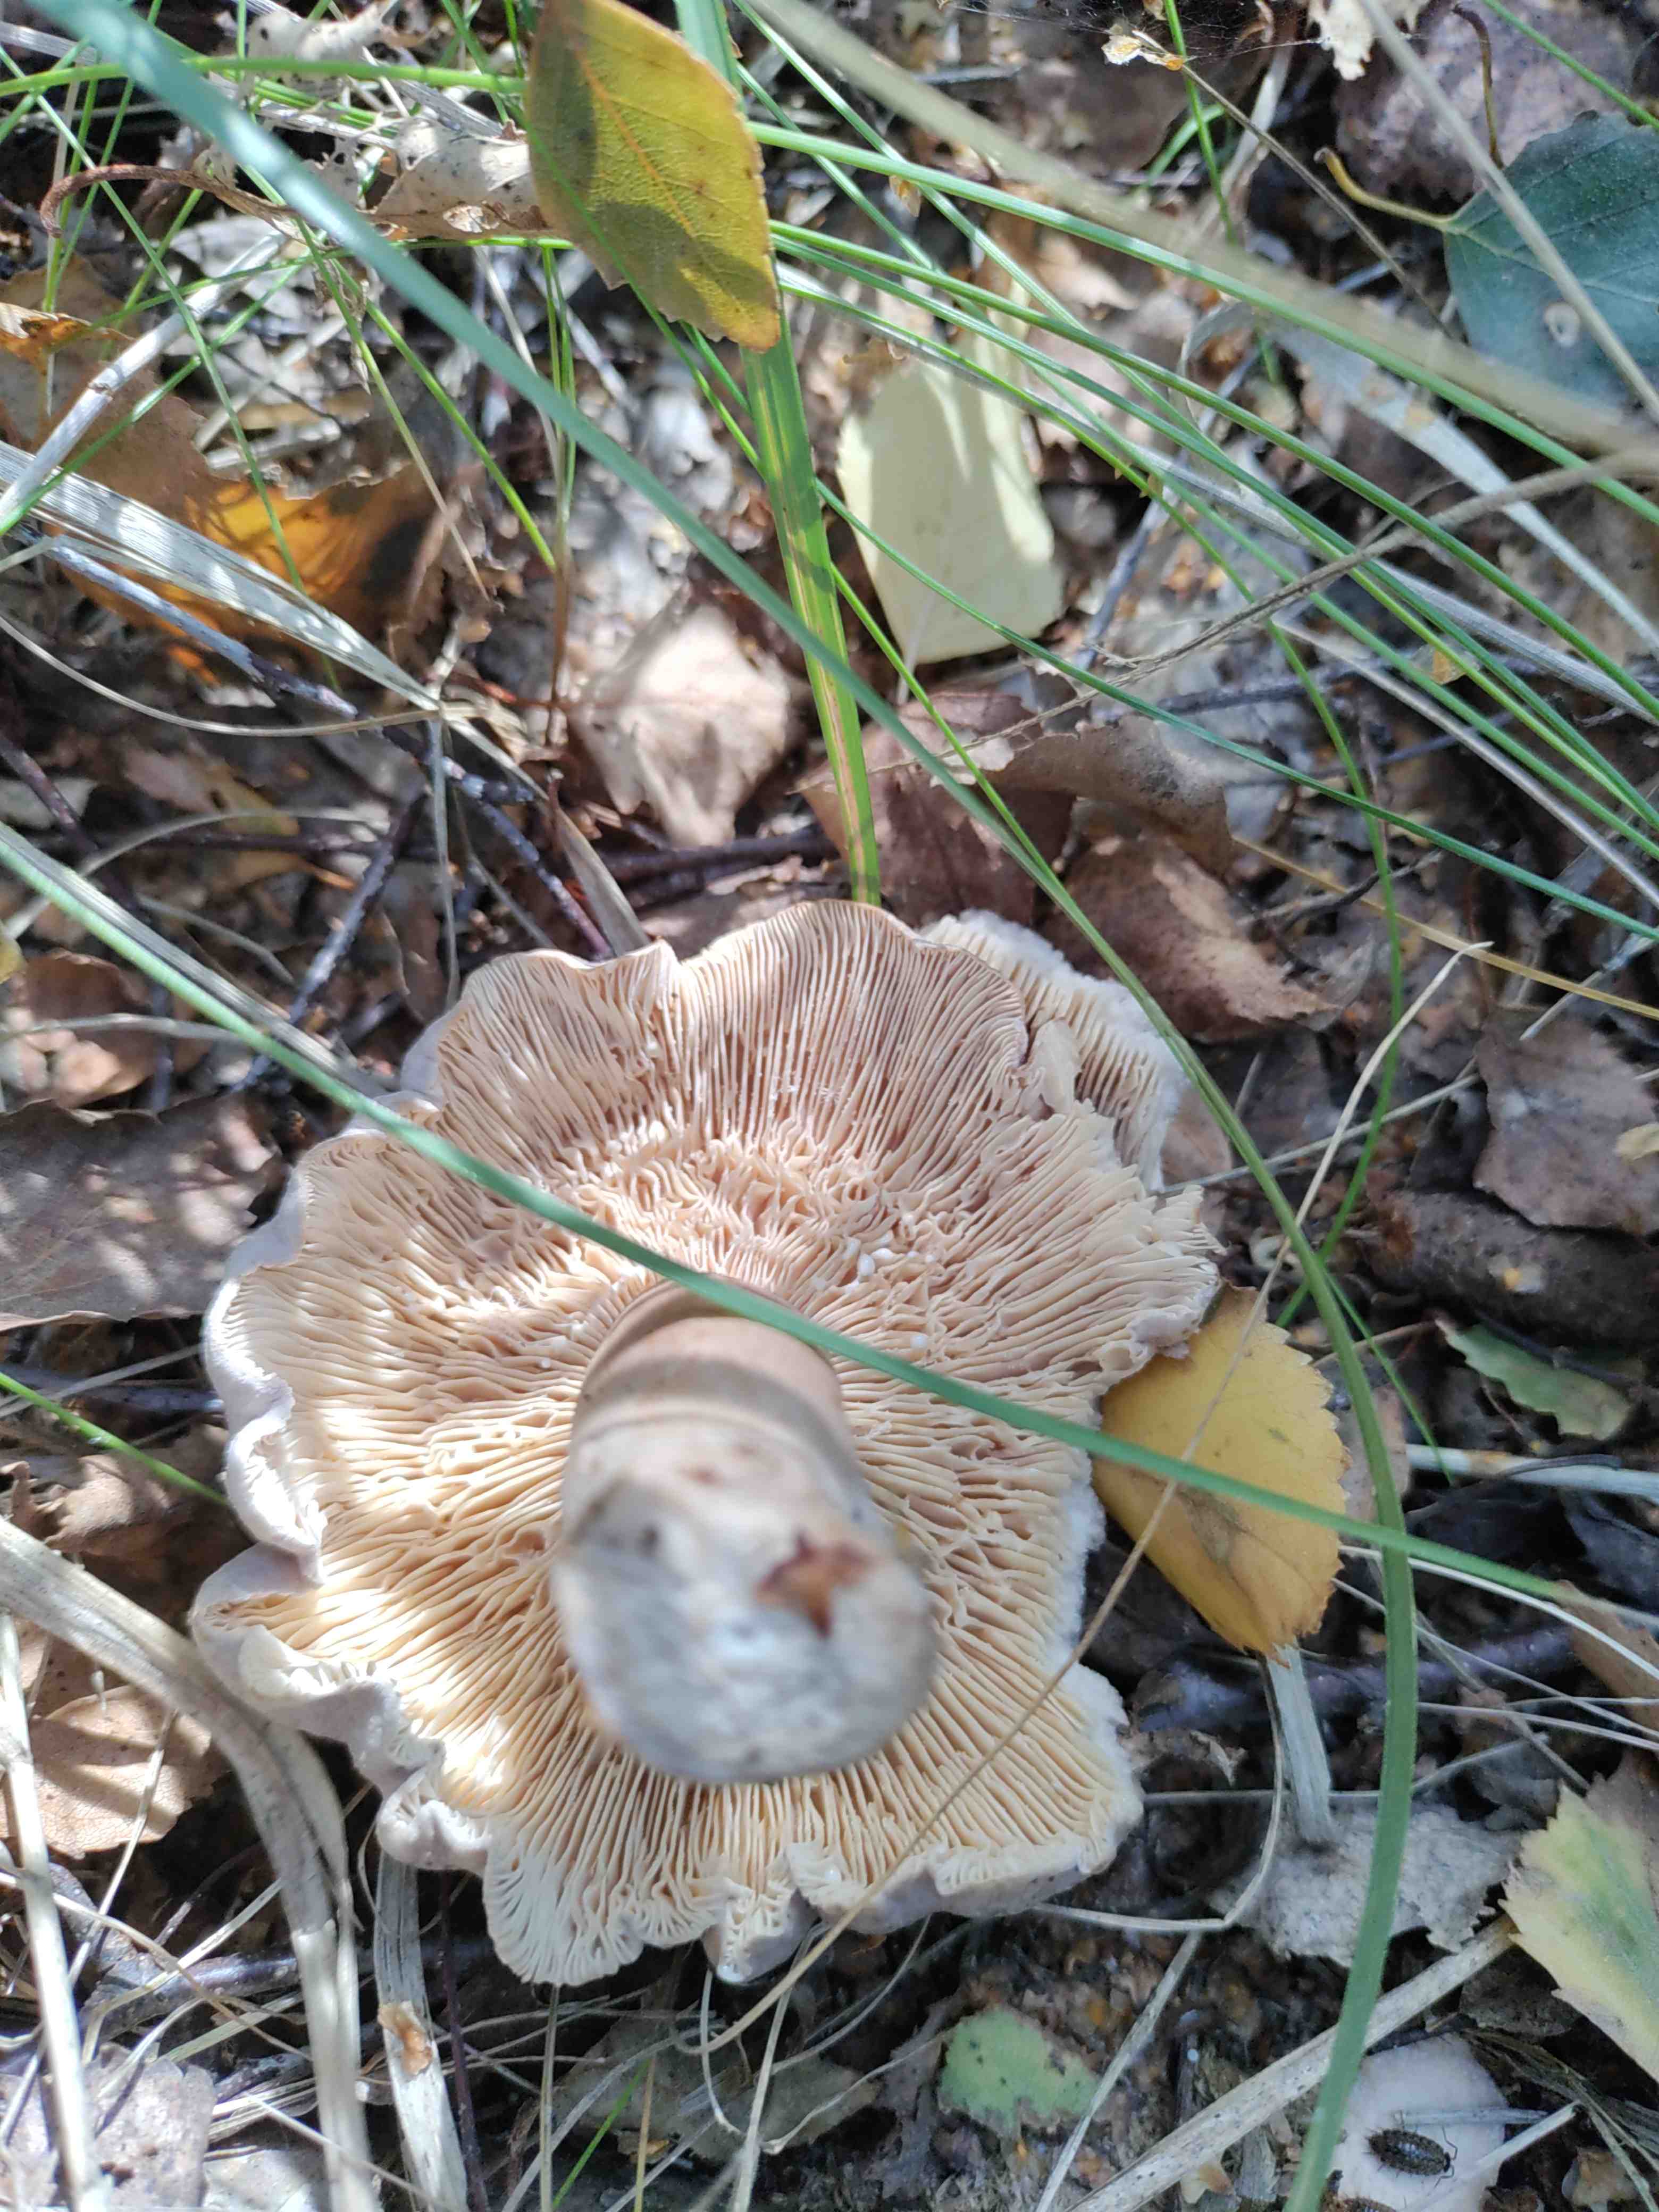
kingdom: Fungi
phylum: Basidiomycota
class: Agaricomycetes
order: Russulales
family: Russulaceae
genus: Lactarius
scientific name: Lactarius vietus
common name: violetgrå mælkehat
